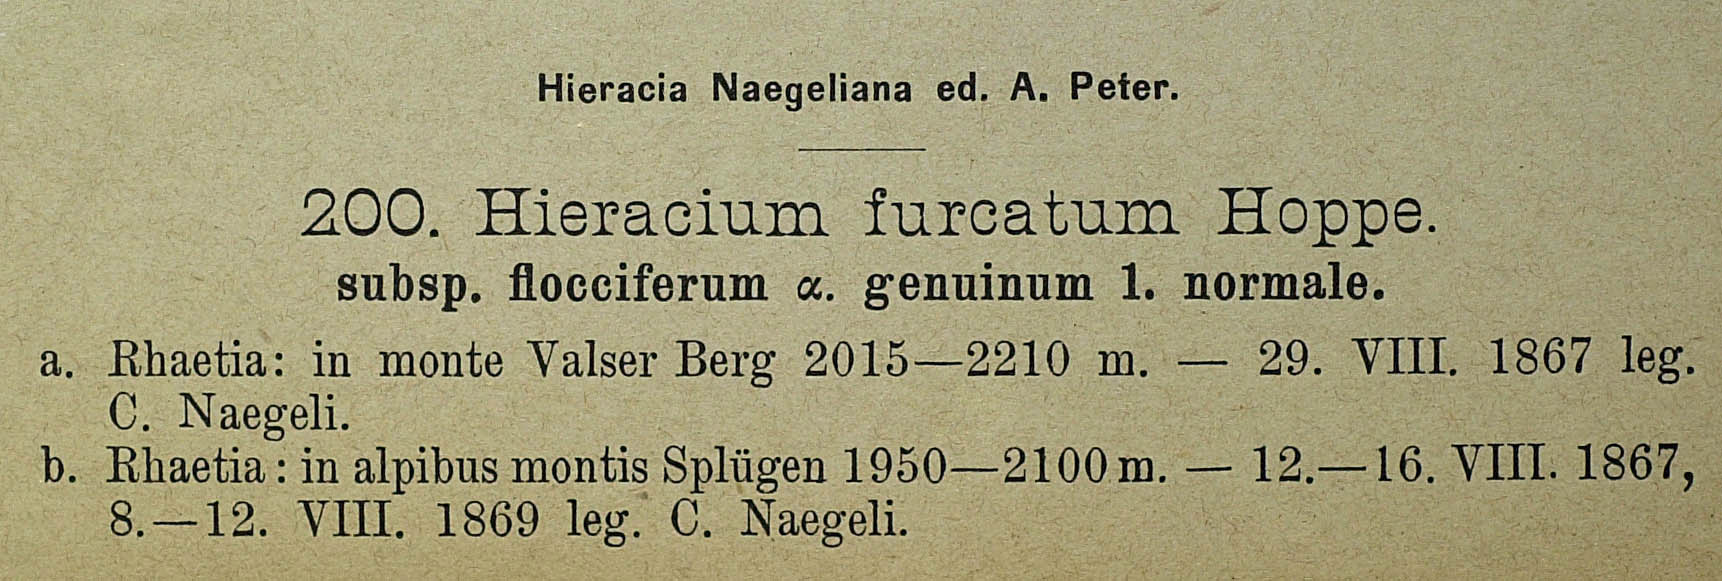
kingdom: Plantae
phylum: Tracheophyta
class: Magnoliopsida
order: Asterales
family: Asteraceae
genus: Hieracium
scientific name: Hieracium sphaerocephalum
